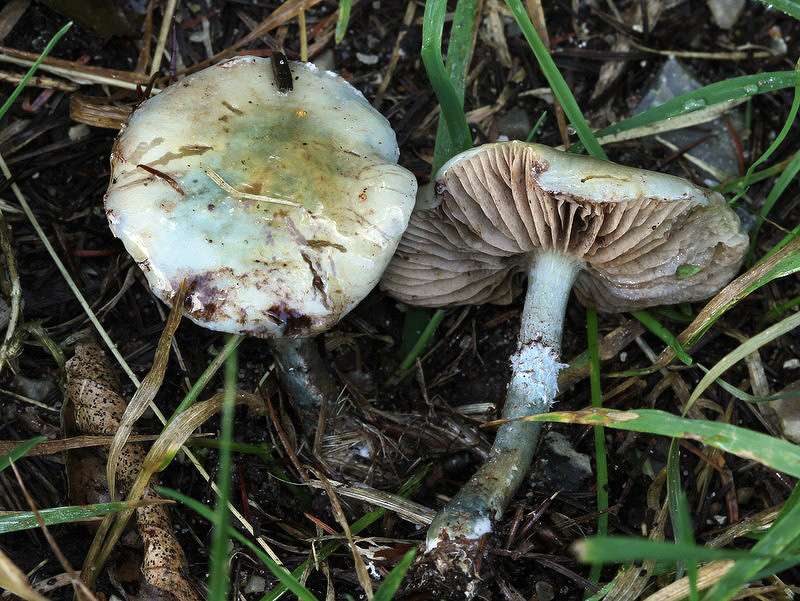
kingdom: Fungi
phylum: Basidiomycota
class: Agaricomycetes
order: Agaricales
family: Strophariaceae
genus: Stropharia
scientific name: Stropharia cyanea
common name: blågrøn bredblad
